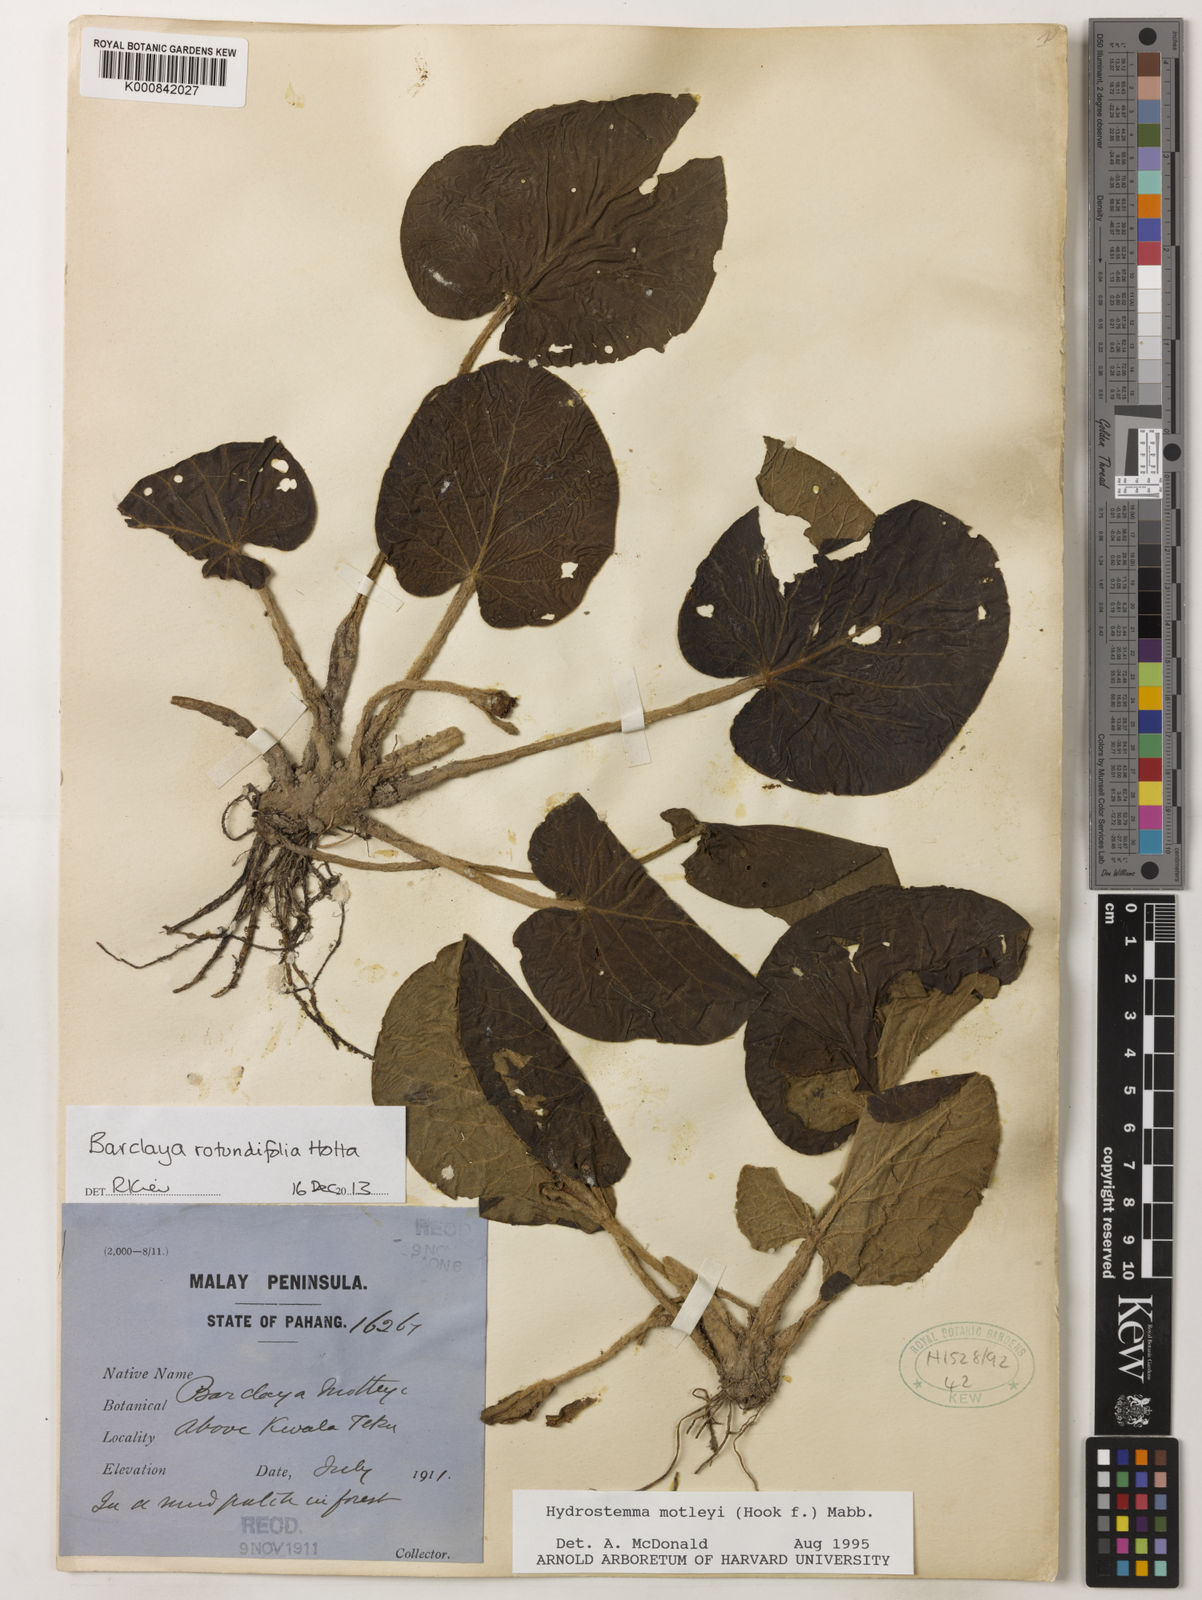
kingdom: Plantae
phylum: Tracheophyta
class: Magnoliopsida
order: Nymphaeales
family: Nymphaeaceae
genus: Barclaya
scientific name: Barclaya rotundifolia
